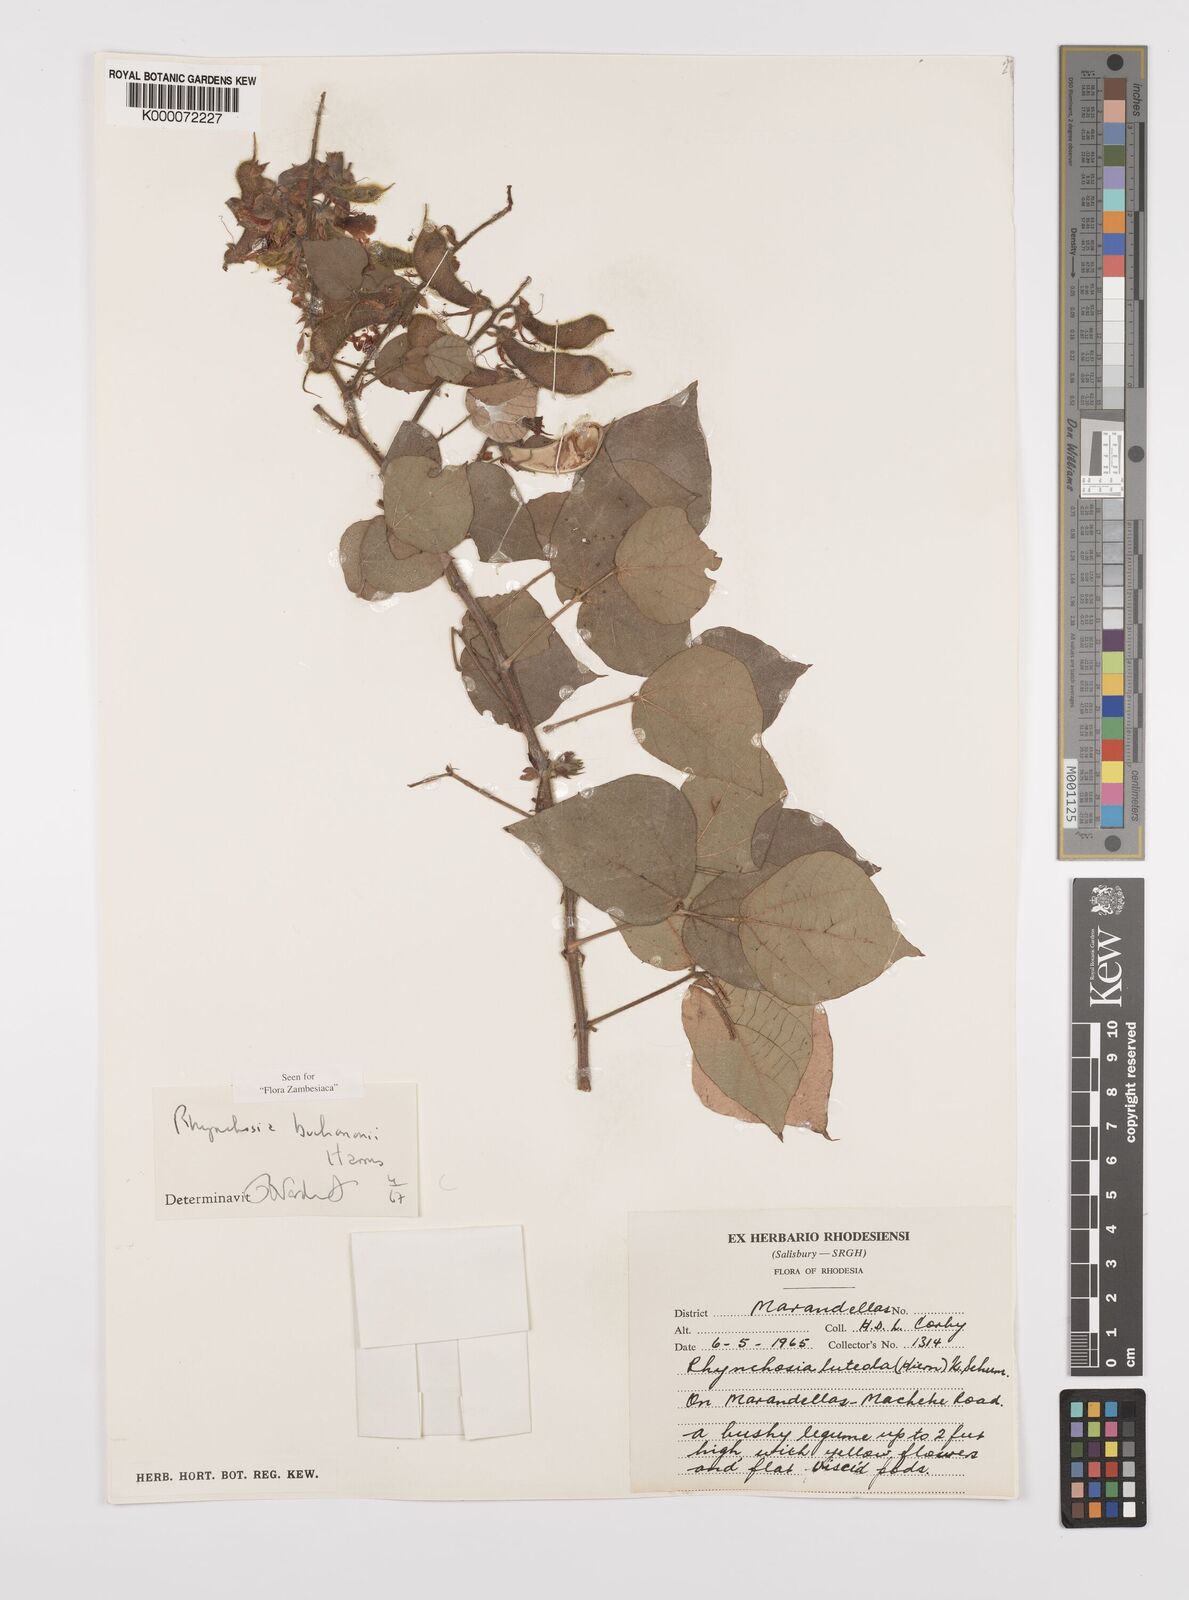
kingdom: Plantae
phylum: Tracheophyta
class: Magnoliopsida
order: Fabales
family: Fabaceae
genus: Rhynchosia
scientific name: Rhynchosia buchananii
